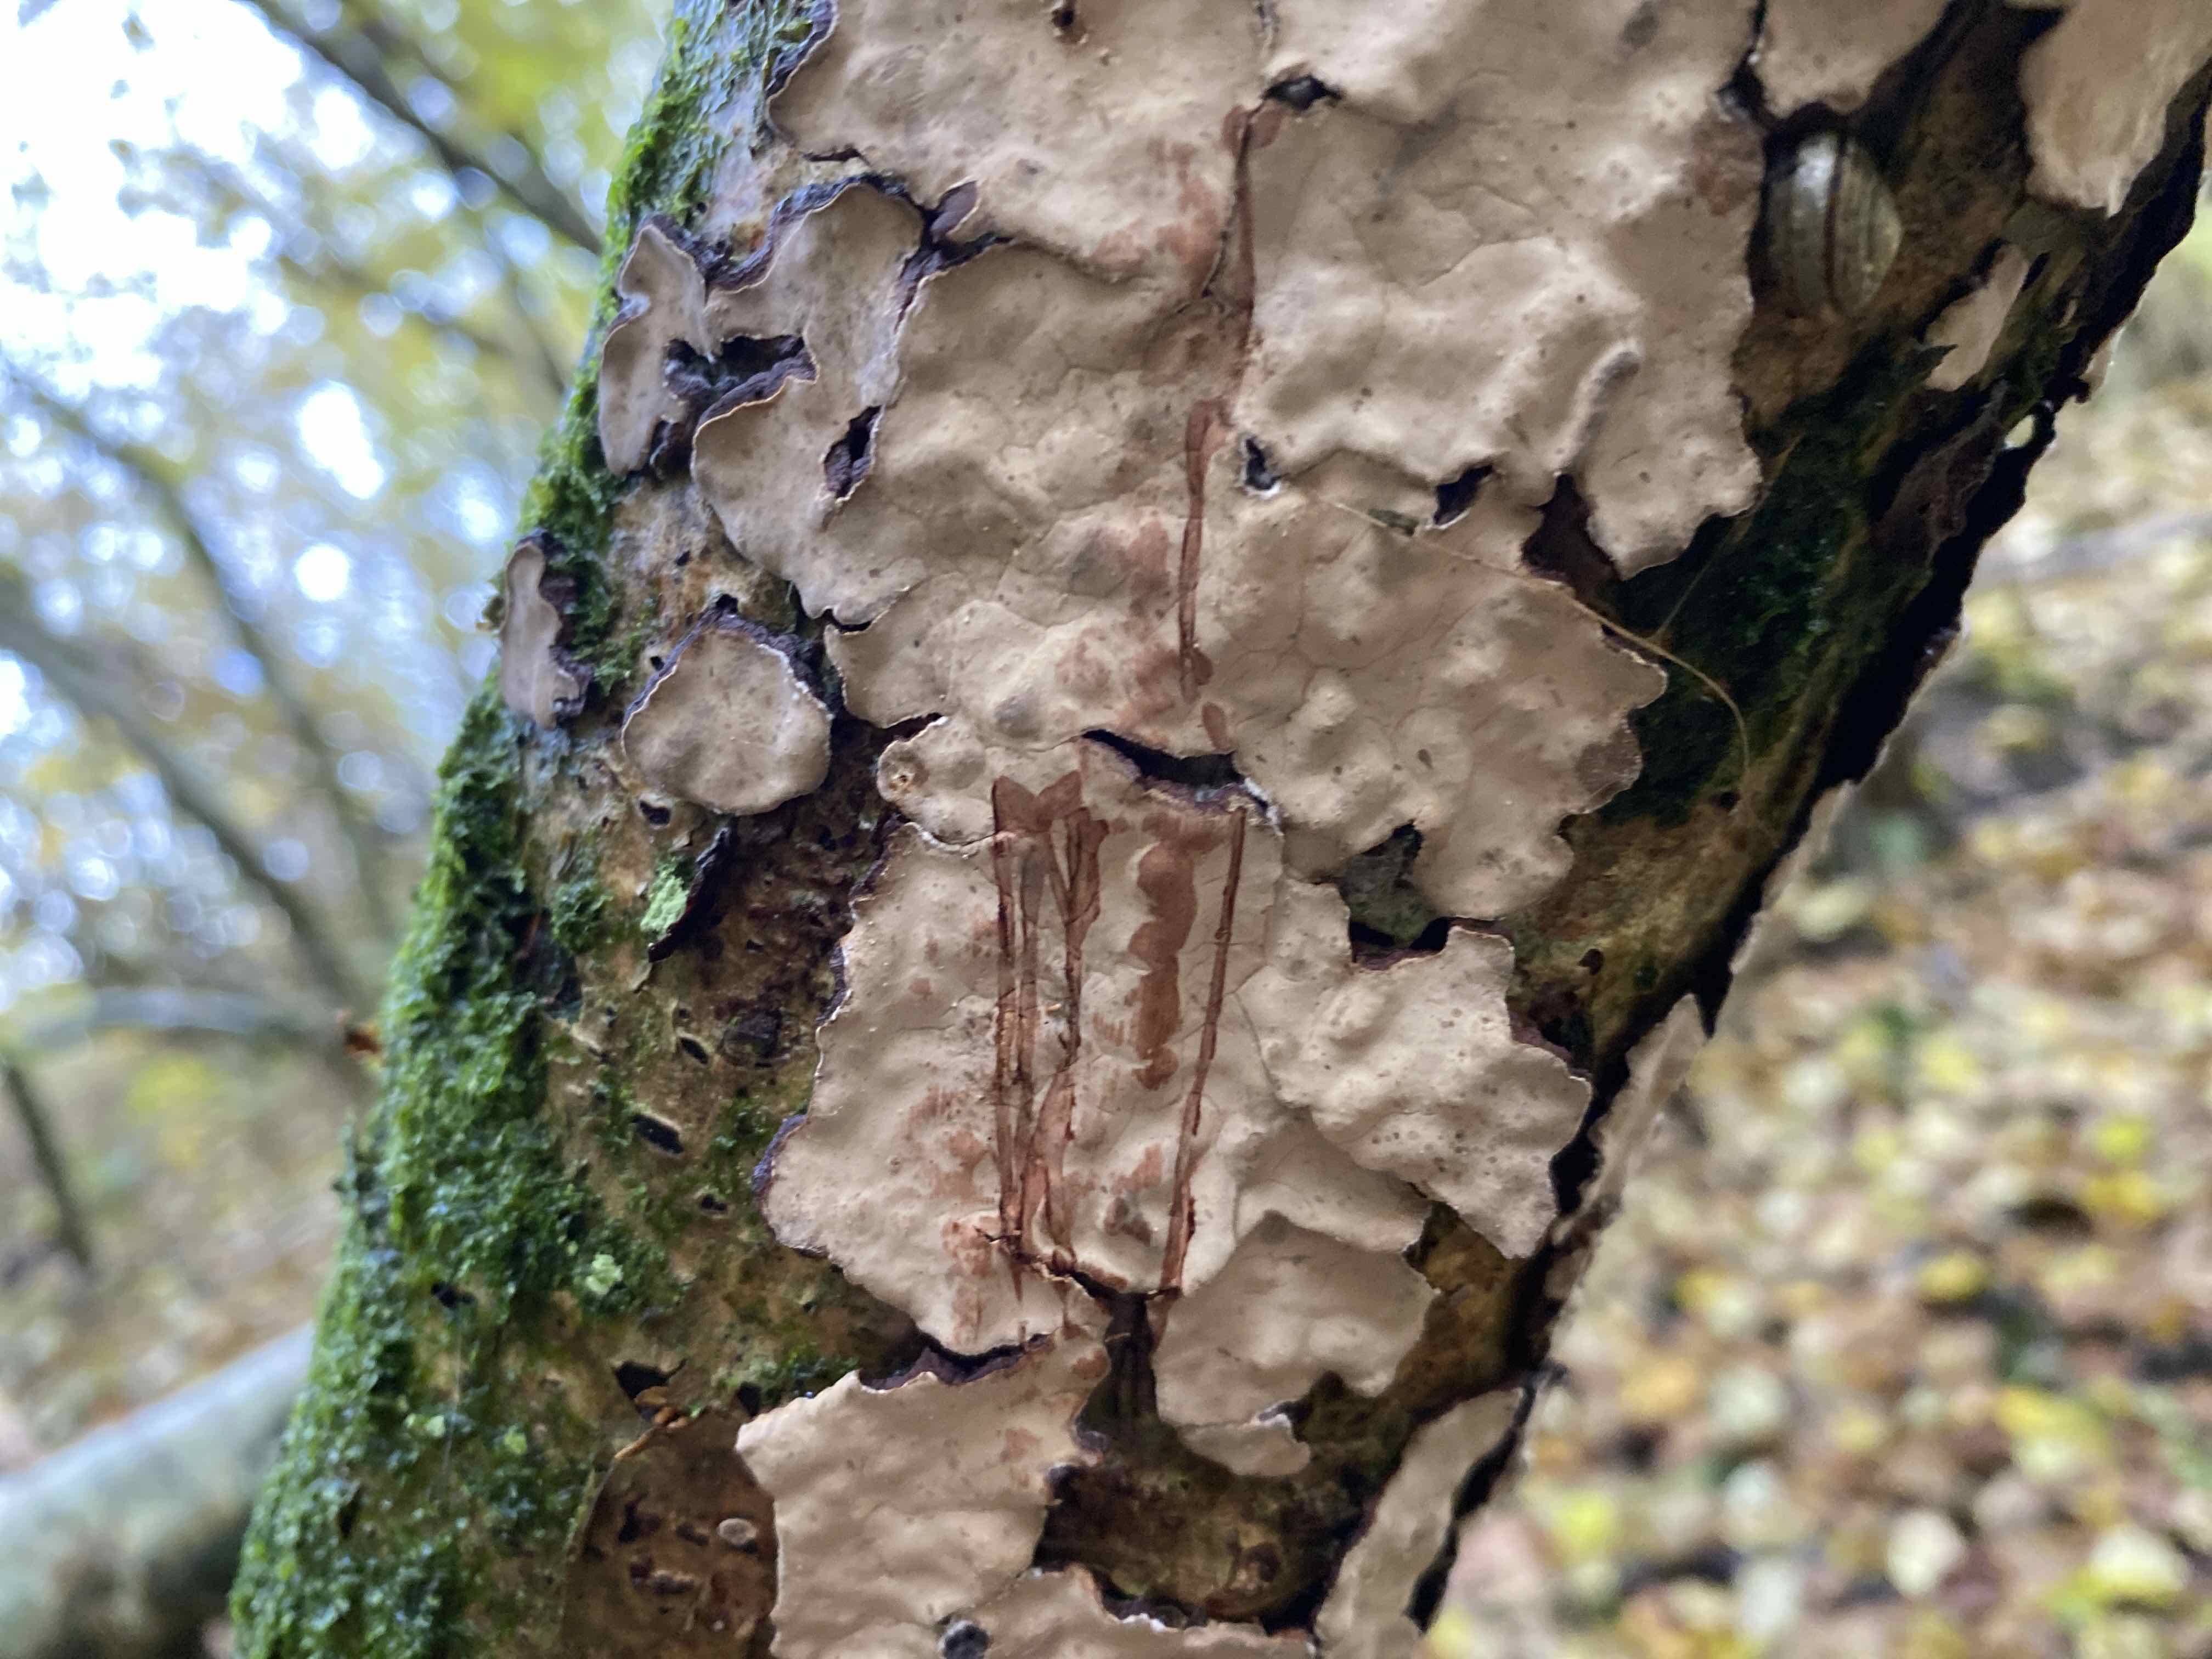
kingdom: Fungi
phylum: Basidiomycota
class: Agaricomycetes
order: Russulales
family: Stereaceae
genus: Stereum
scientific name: Stereum rugosum
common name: rynket lædersvamp
